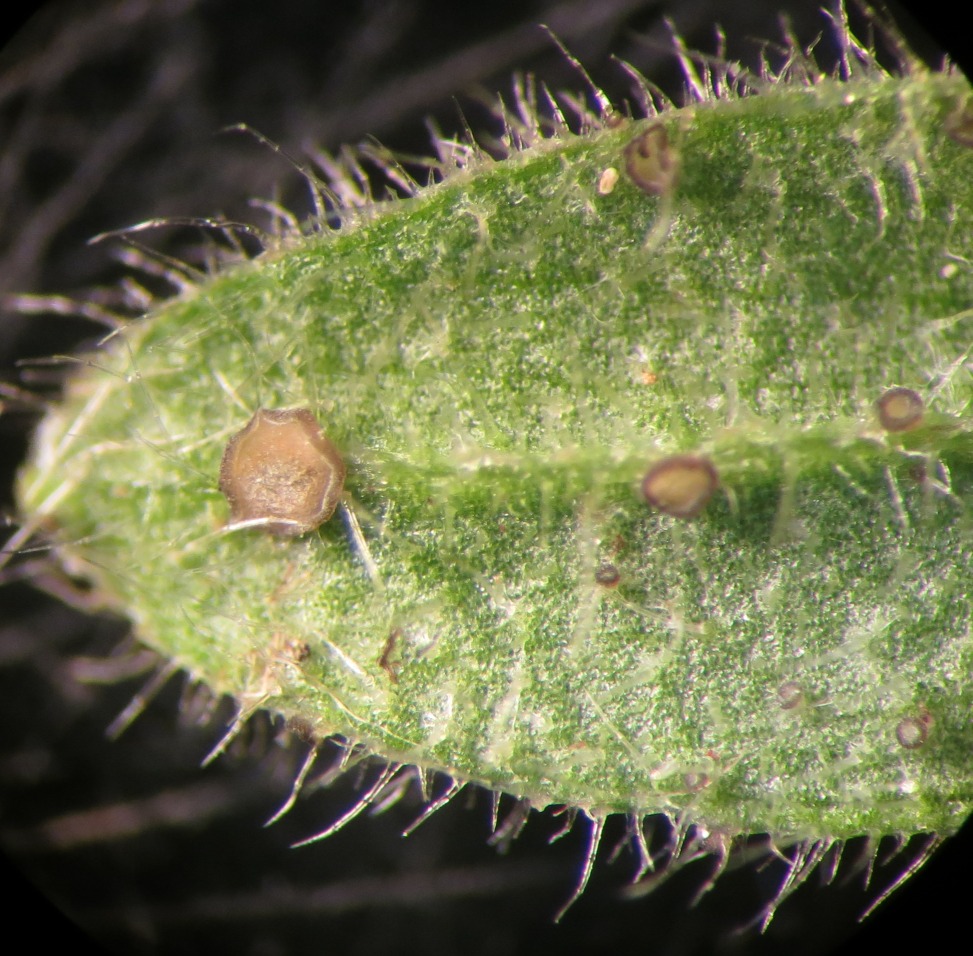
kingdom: Fungi
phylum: Ascomycota
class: Leotiomycetes
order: Helotiales
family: Drepanopezizaceae
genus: Leptotrochila
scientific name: Leptotrochila cerastiorum
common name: hønsetarm-bladskive
